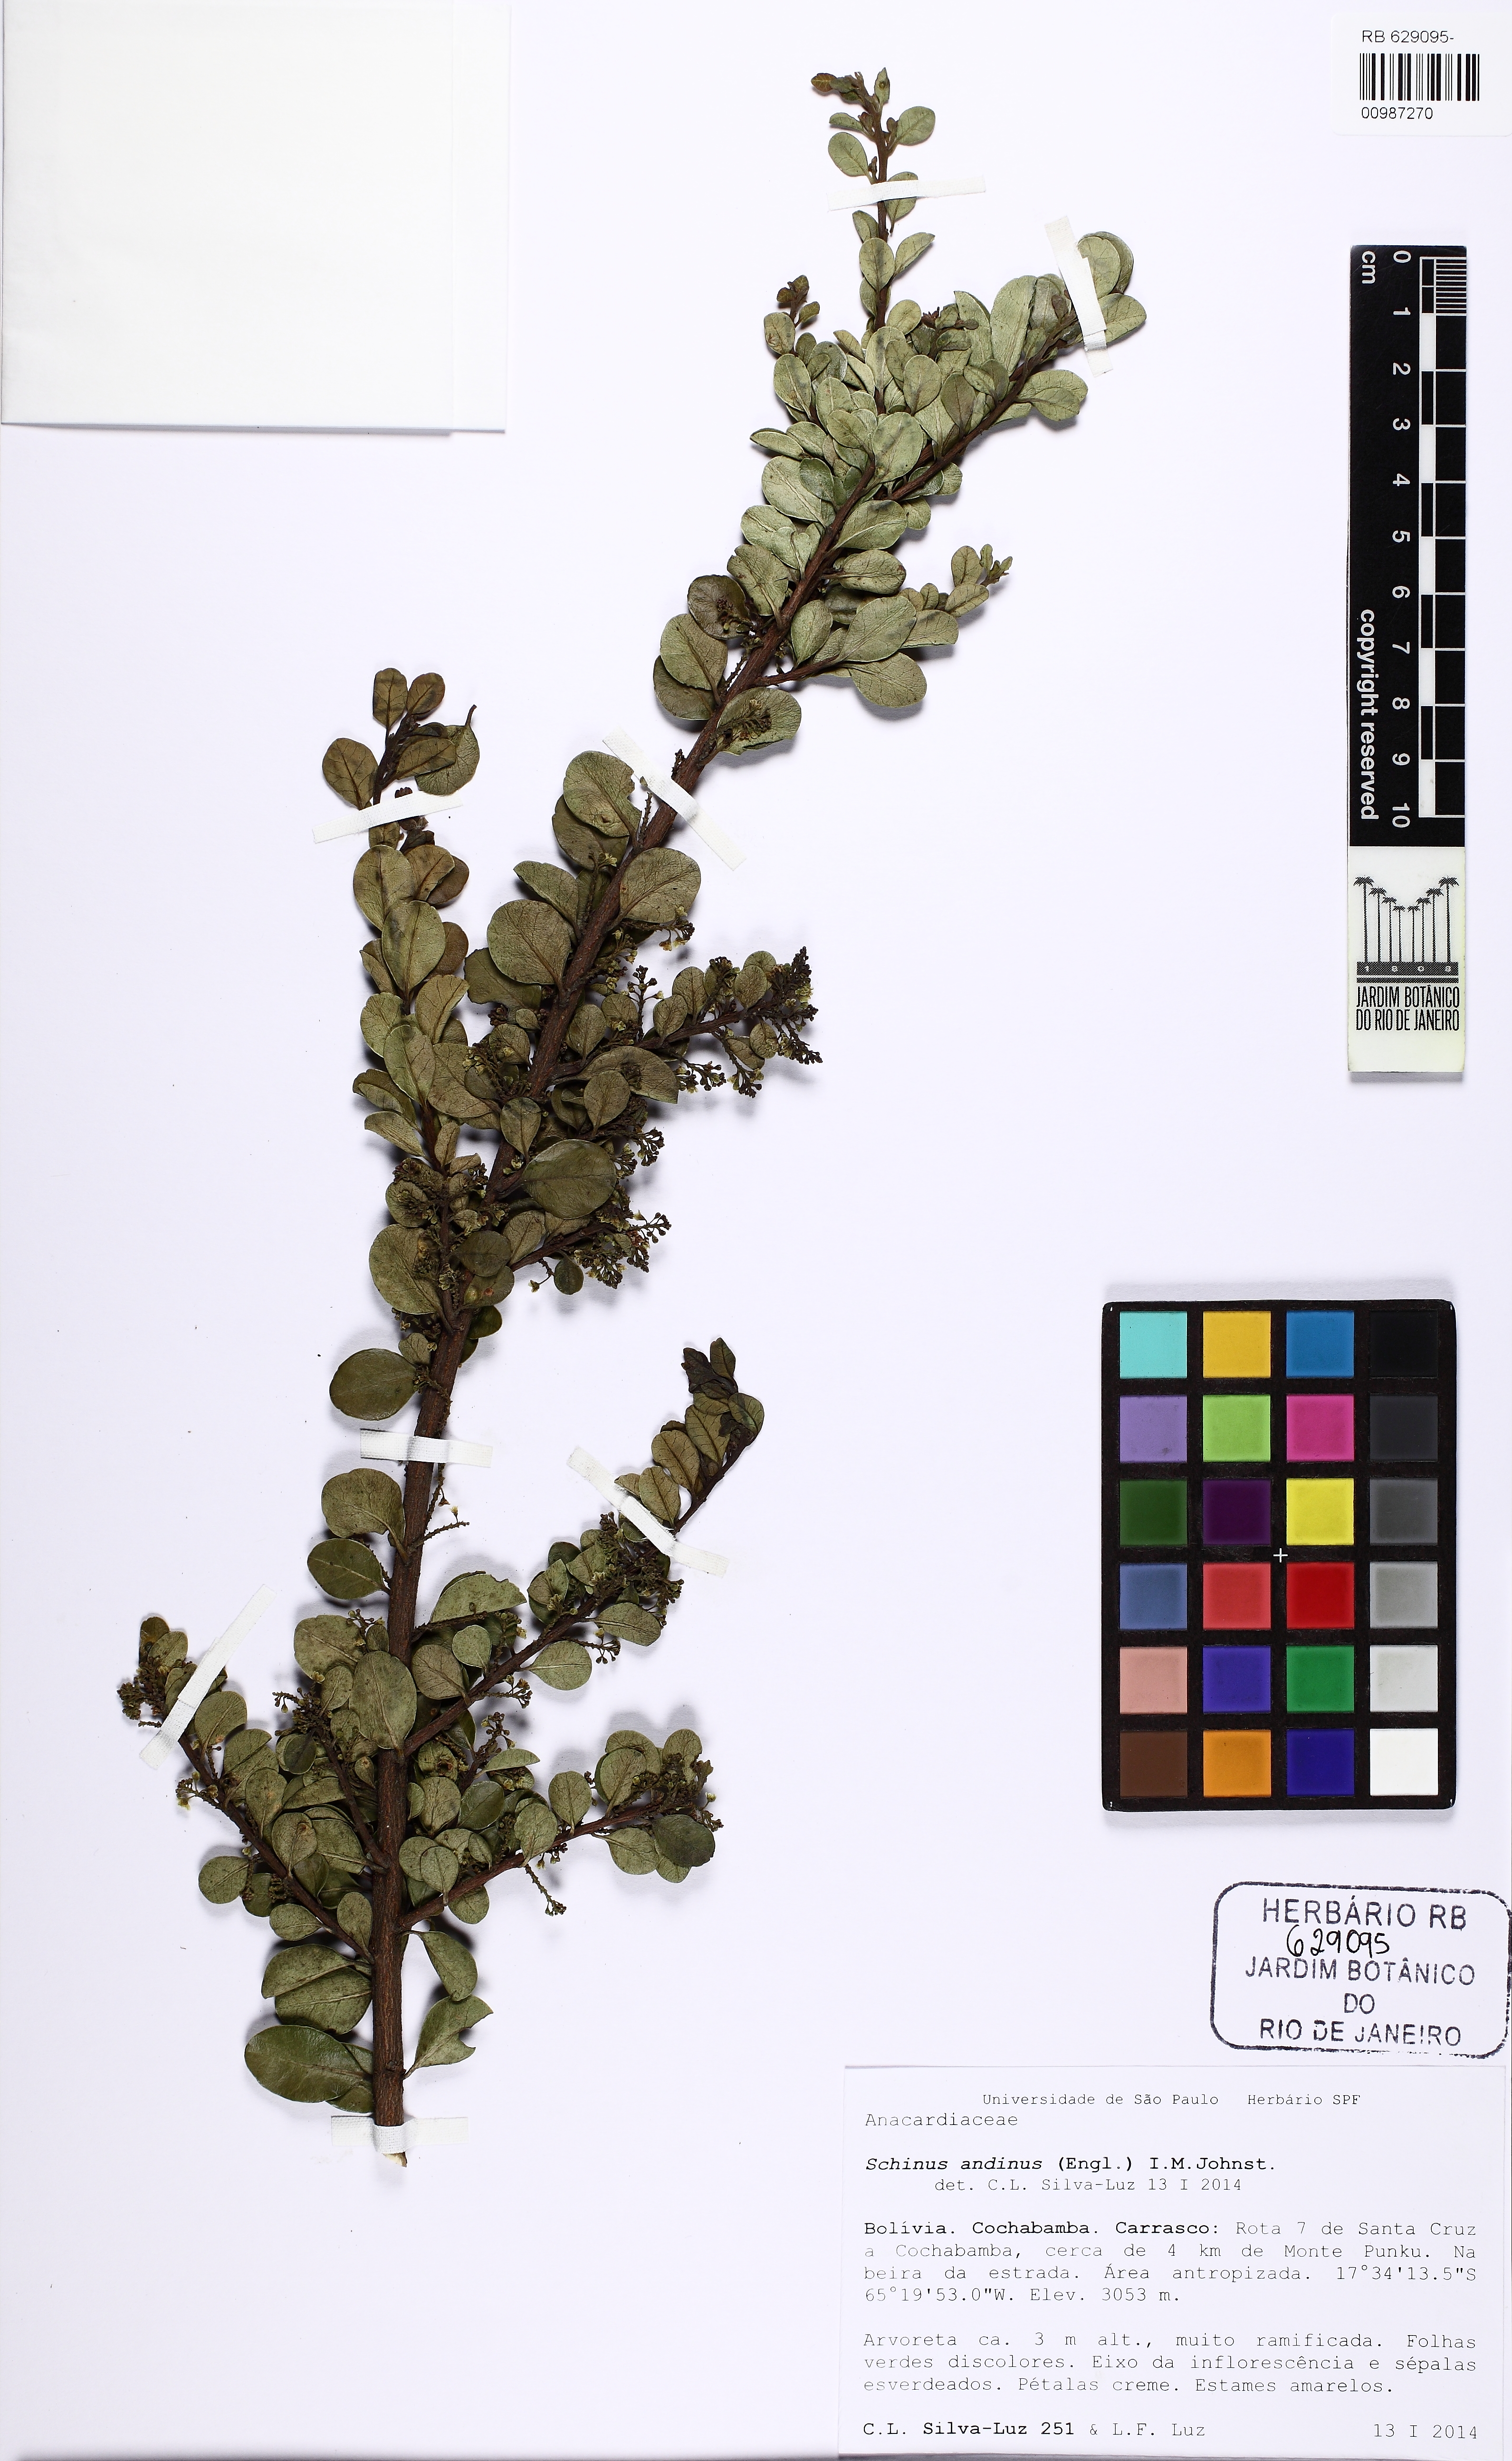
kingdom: Plantae
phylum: Tracheophyta
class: Magnoliopsida
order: Sapindales
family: Anacardiaceae
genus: Schinus
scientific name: Schinus microphylla
